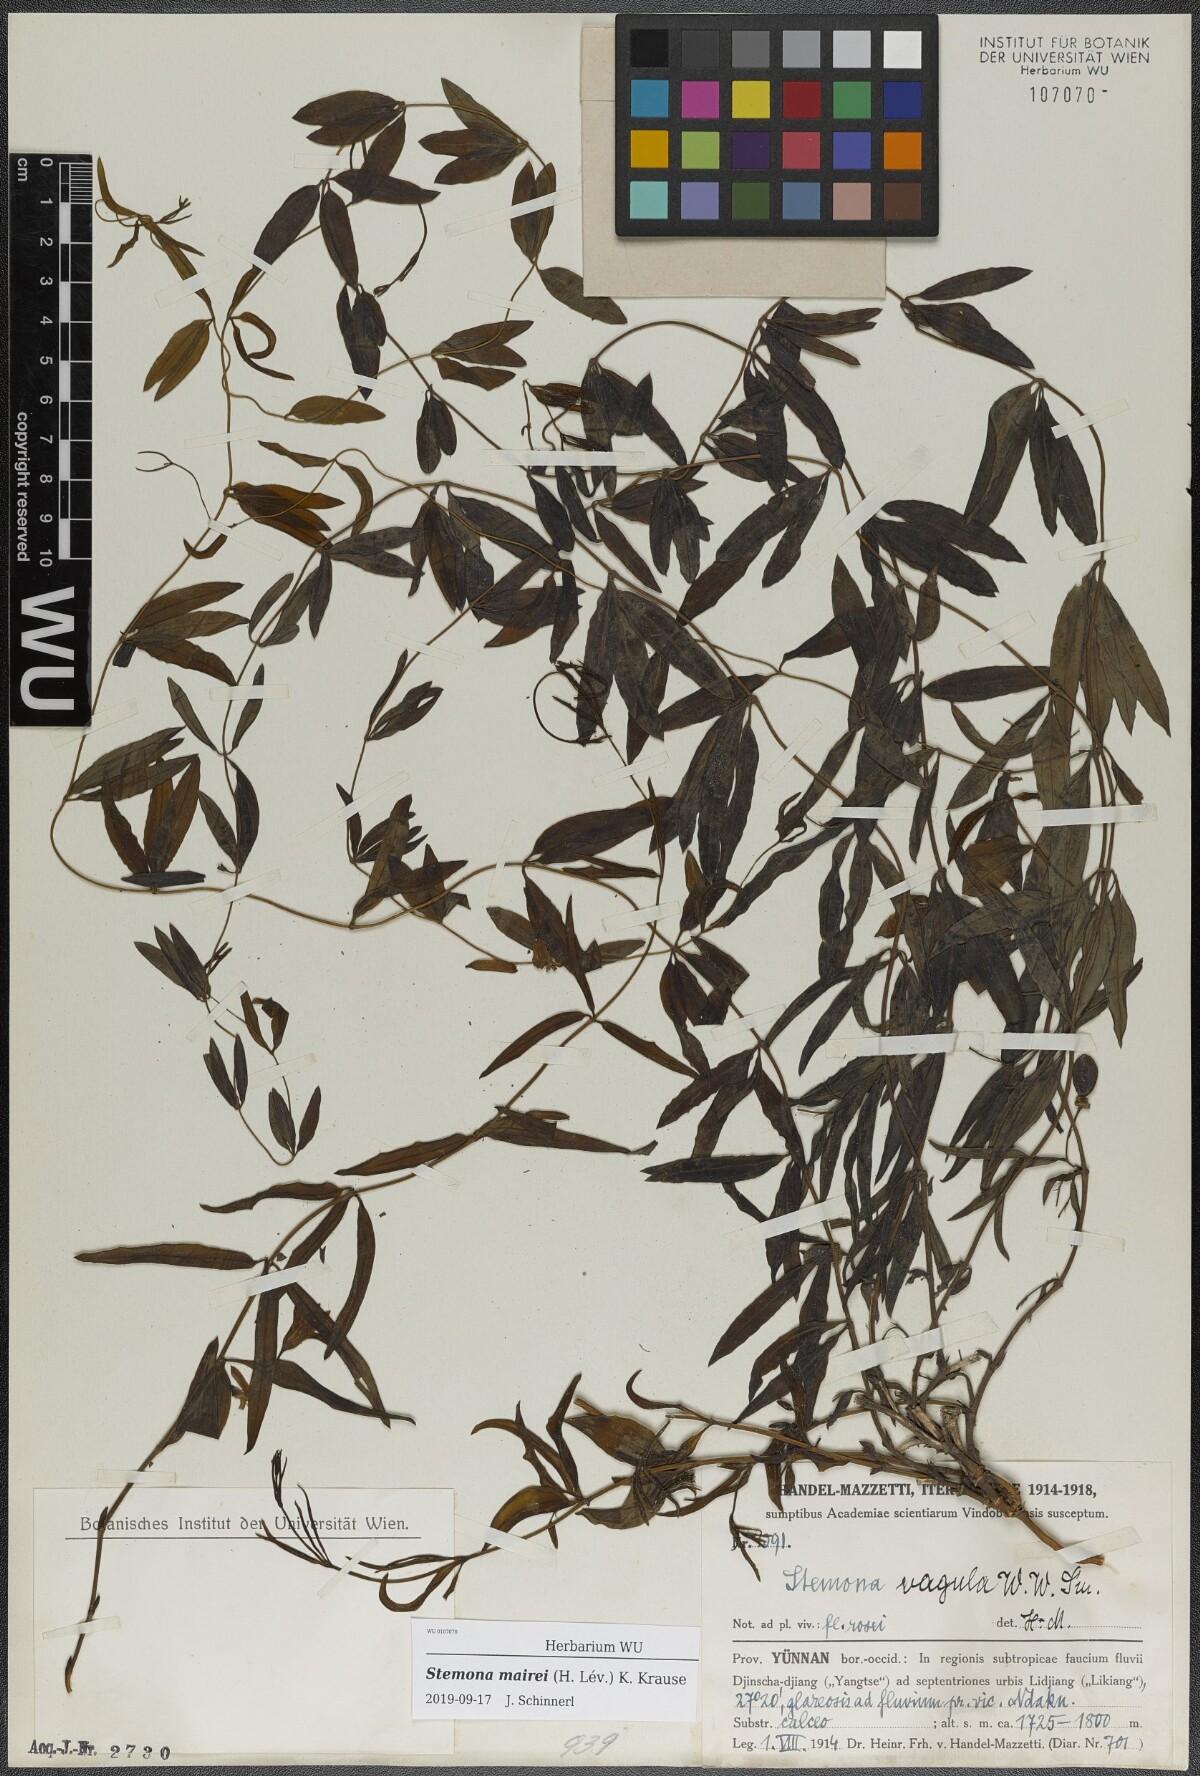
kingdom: Plantae
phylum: Tracheophyta
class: Liliopsida
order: Pandanales
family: Stemonaceae
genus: Stemona
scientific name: Stemona mairei
